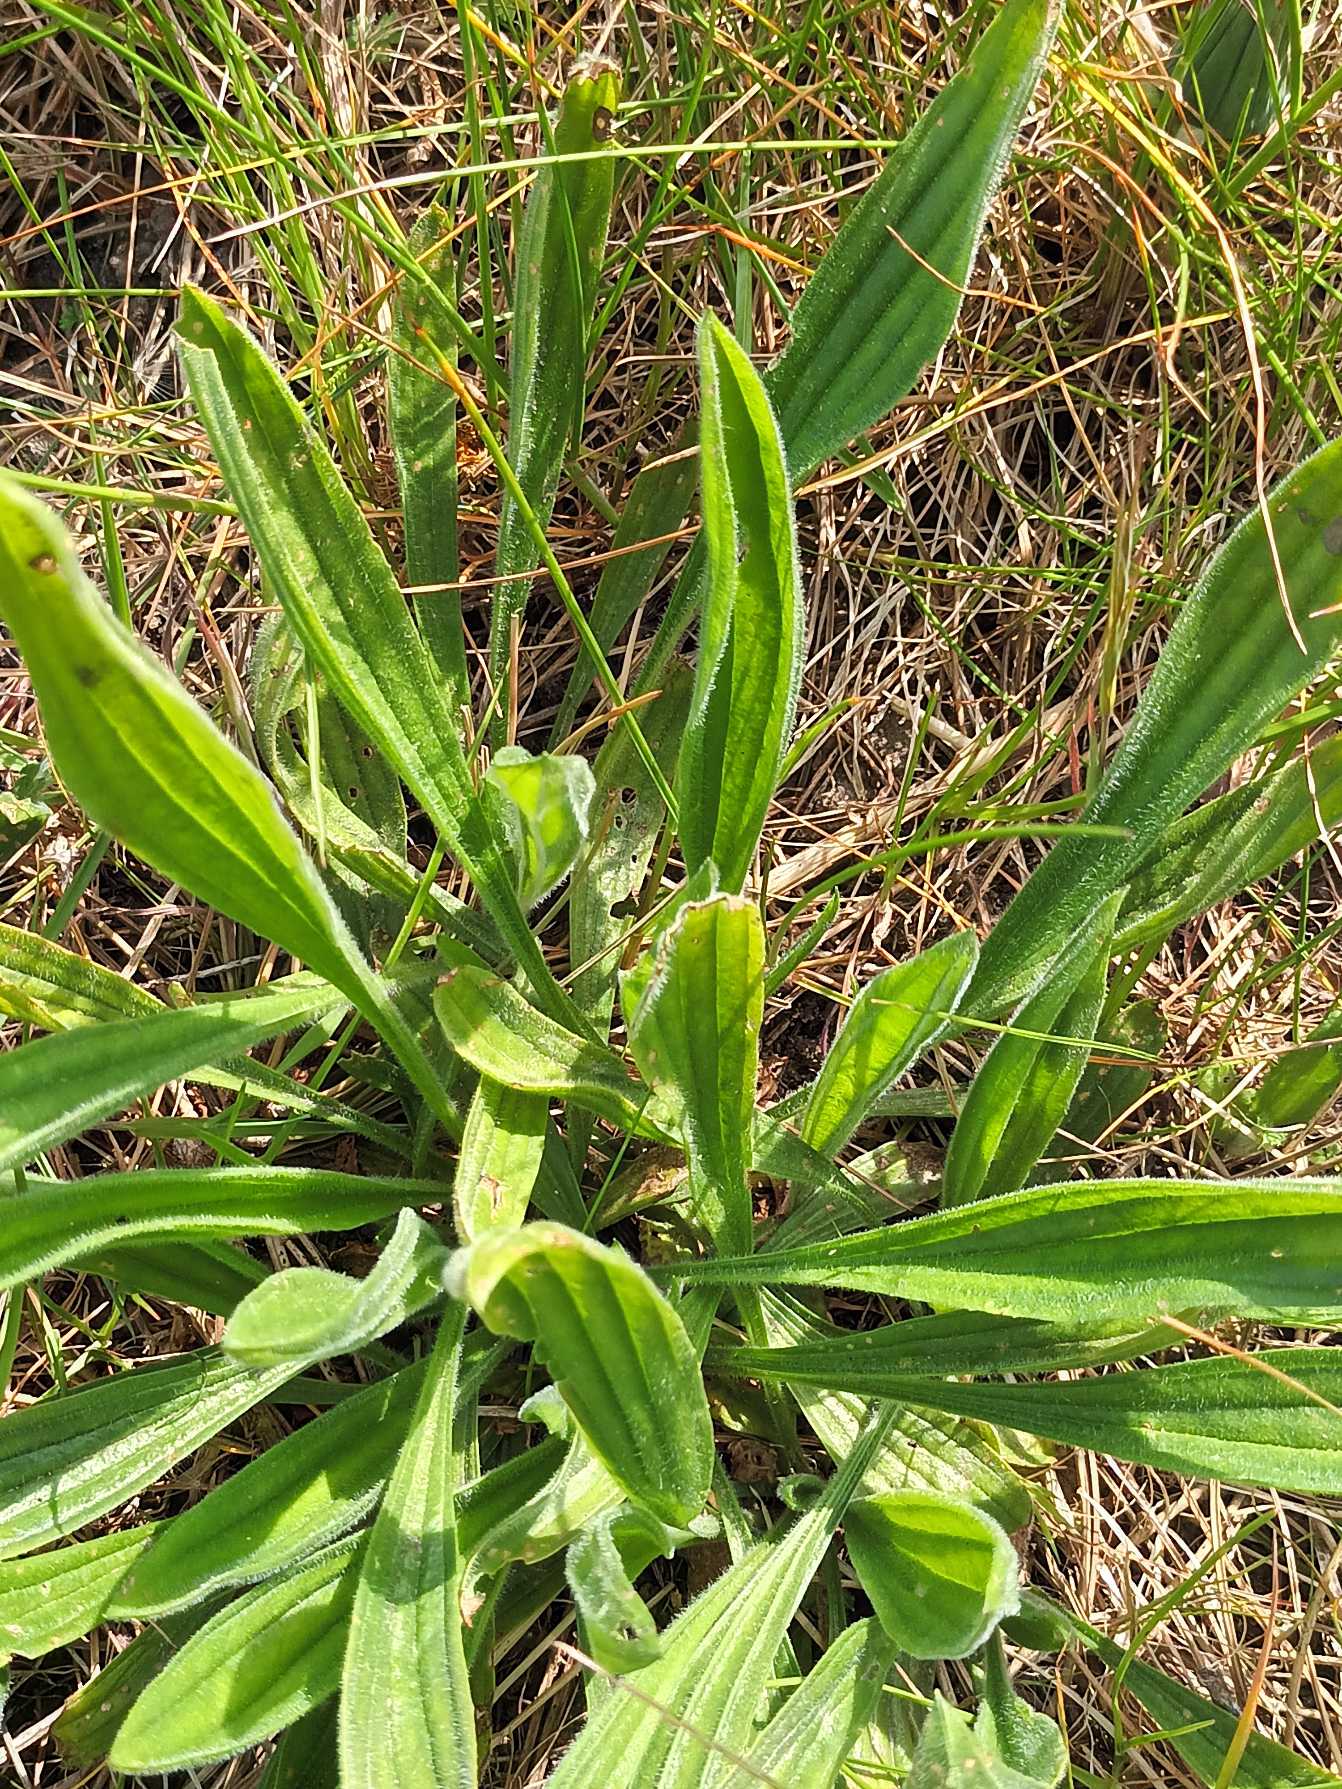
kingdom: Plantae
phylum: Tracheophyta
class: Magnoliopsida
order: Lamiales
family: Plantaginaceae
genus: Plantago
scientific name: Plantago lanceolata
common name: Lancet-vejbred
